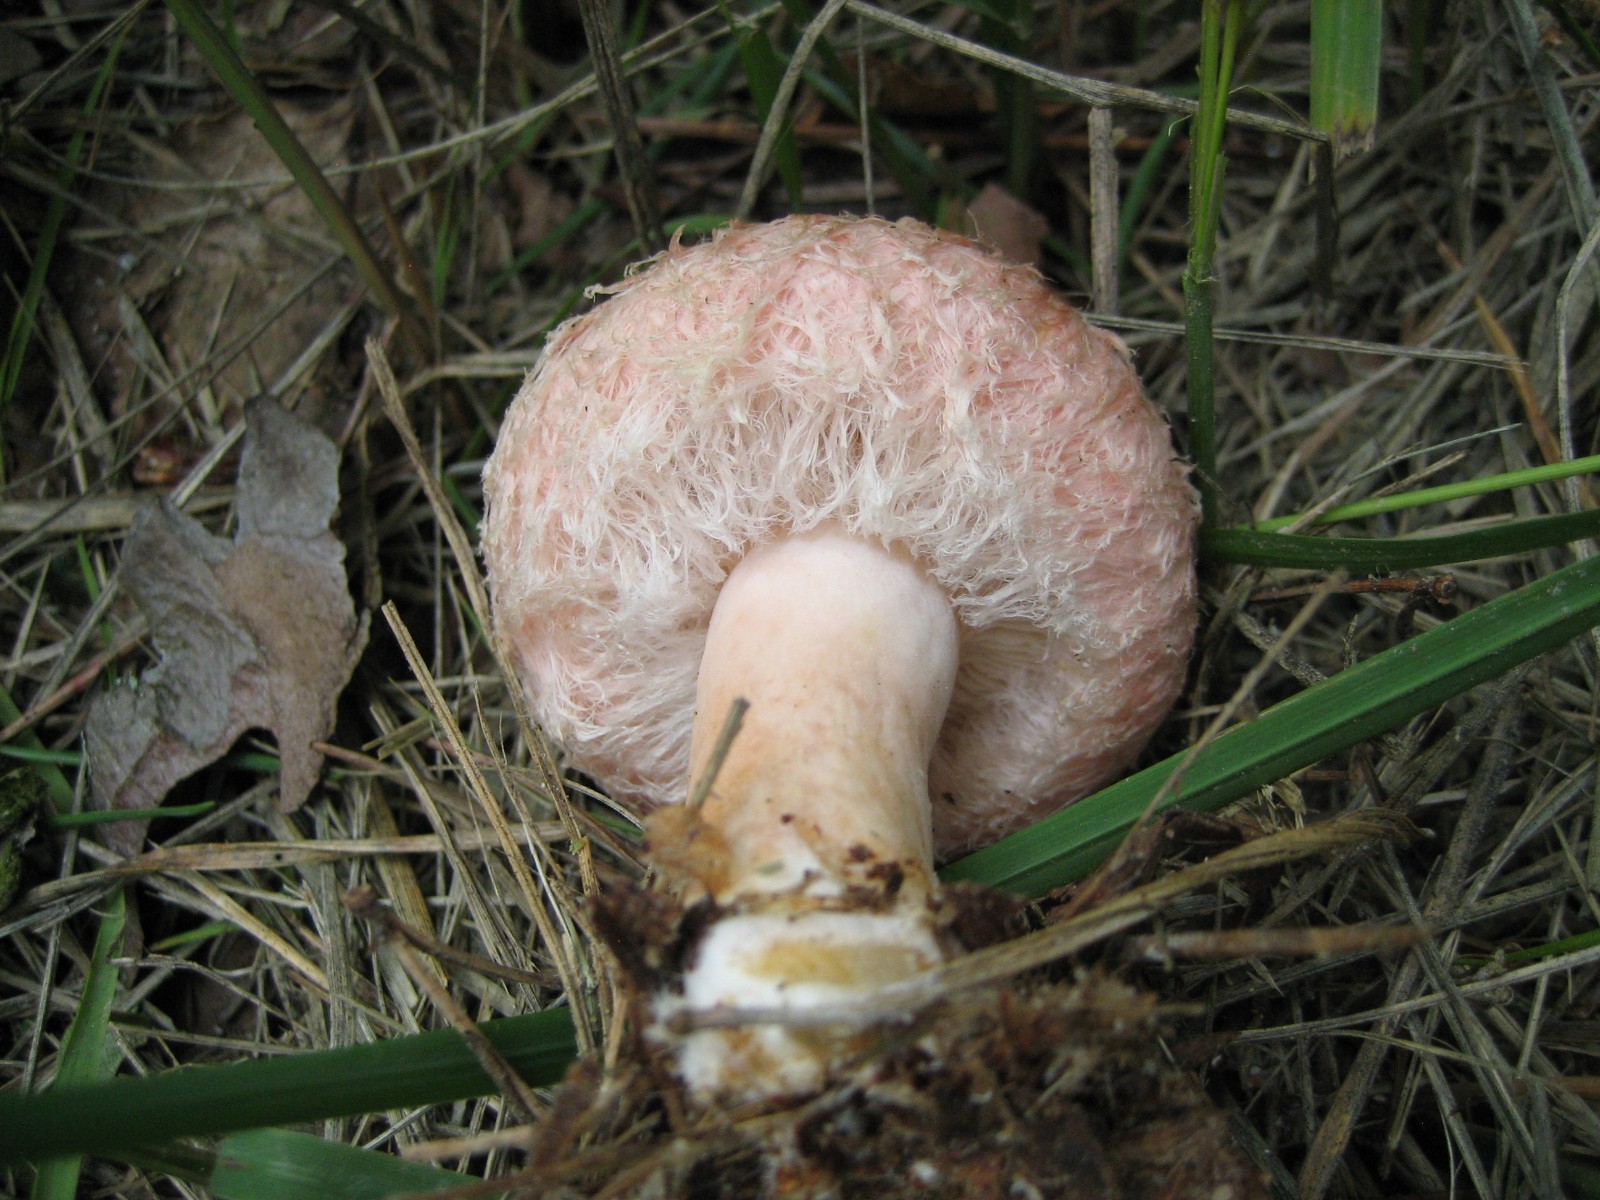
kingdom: Fungi
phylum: Basidiomycota
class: Agaricomycetes
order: Russulales
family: Russulaceae
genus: Lactarius
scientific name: Lactarius torminosus
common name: skægget mælkehat
